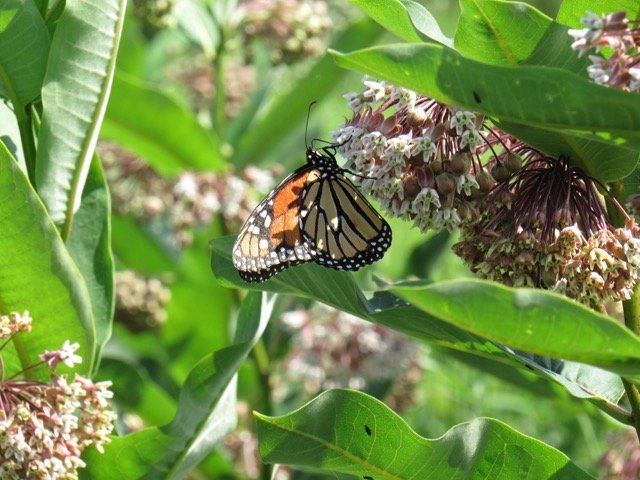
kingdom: Animalia
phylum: Arthropoda
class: Insecta
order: Lepidoptera
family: Nymphalidae
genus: Danaus
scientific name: Danaus plexippus
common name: Monarch
